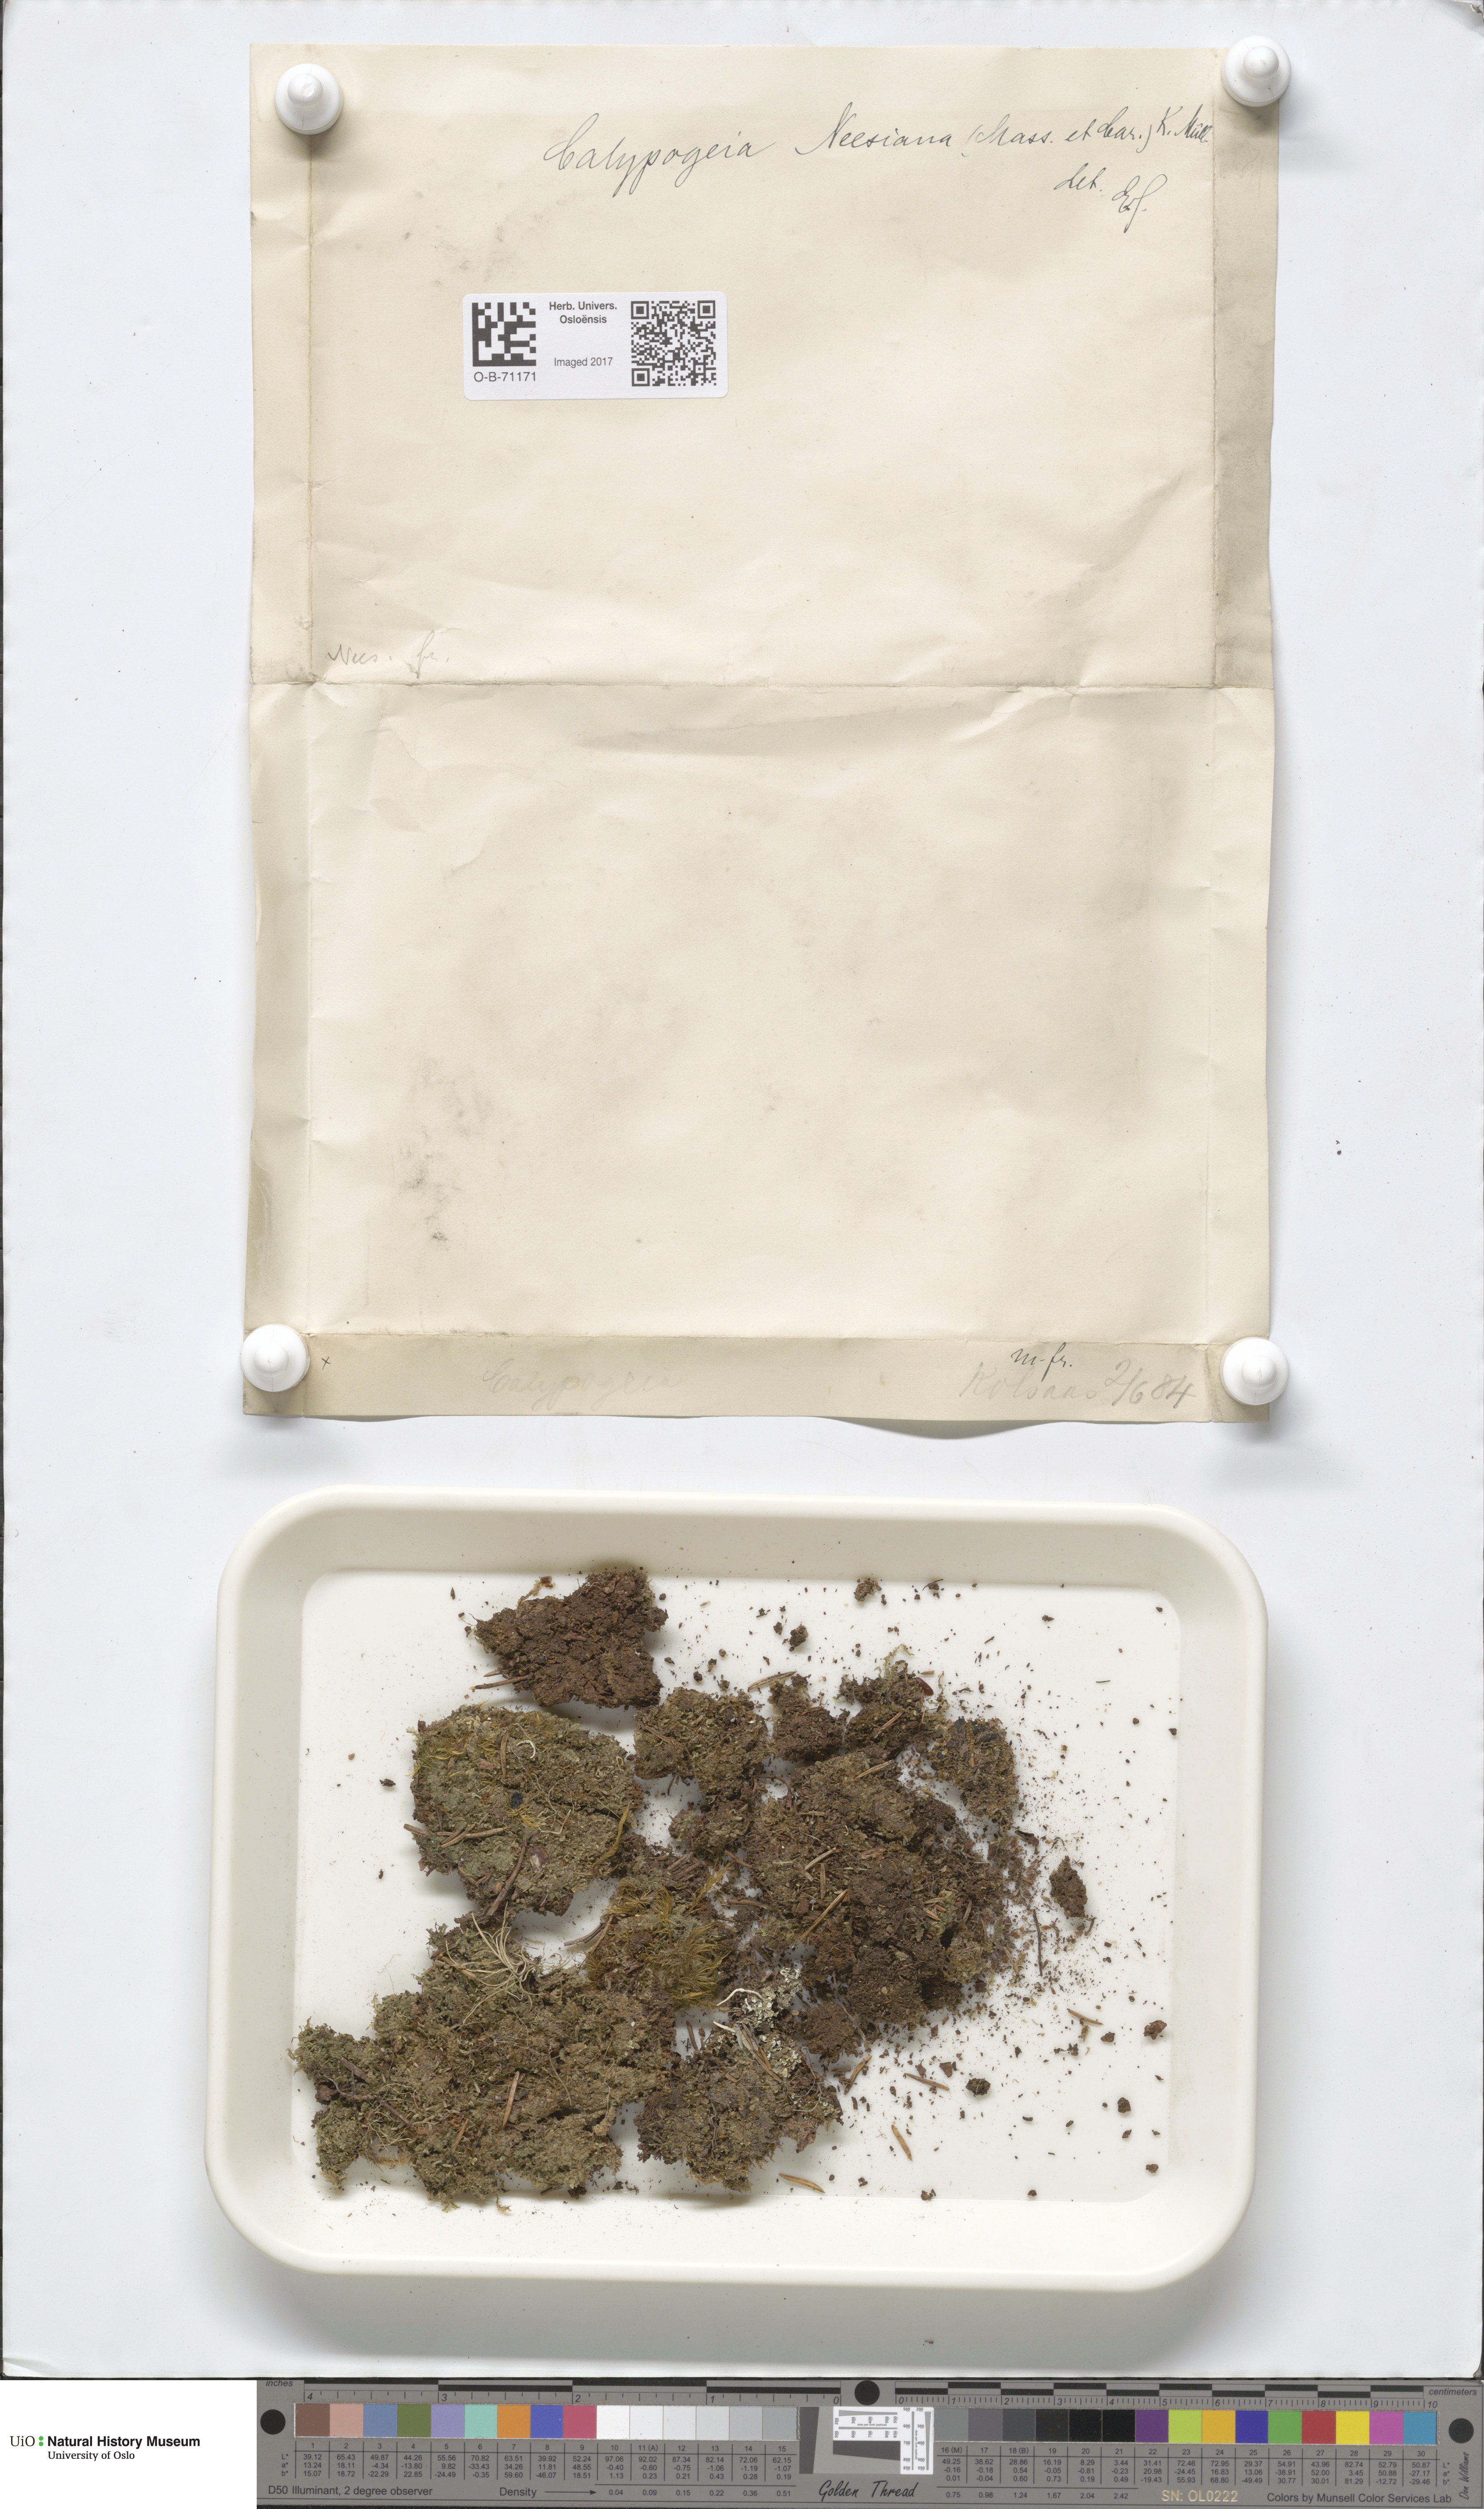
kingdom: Plantae
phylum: Marchantiophyta
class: Jungermanniopsida
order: Jungermanniales
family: Calypogeiaceae
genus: Calypogeia
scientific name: Calypogeia neesiana
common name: Nees  pouchwort
